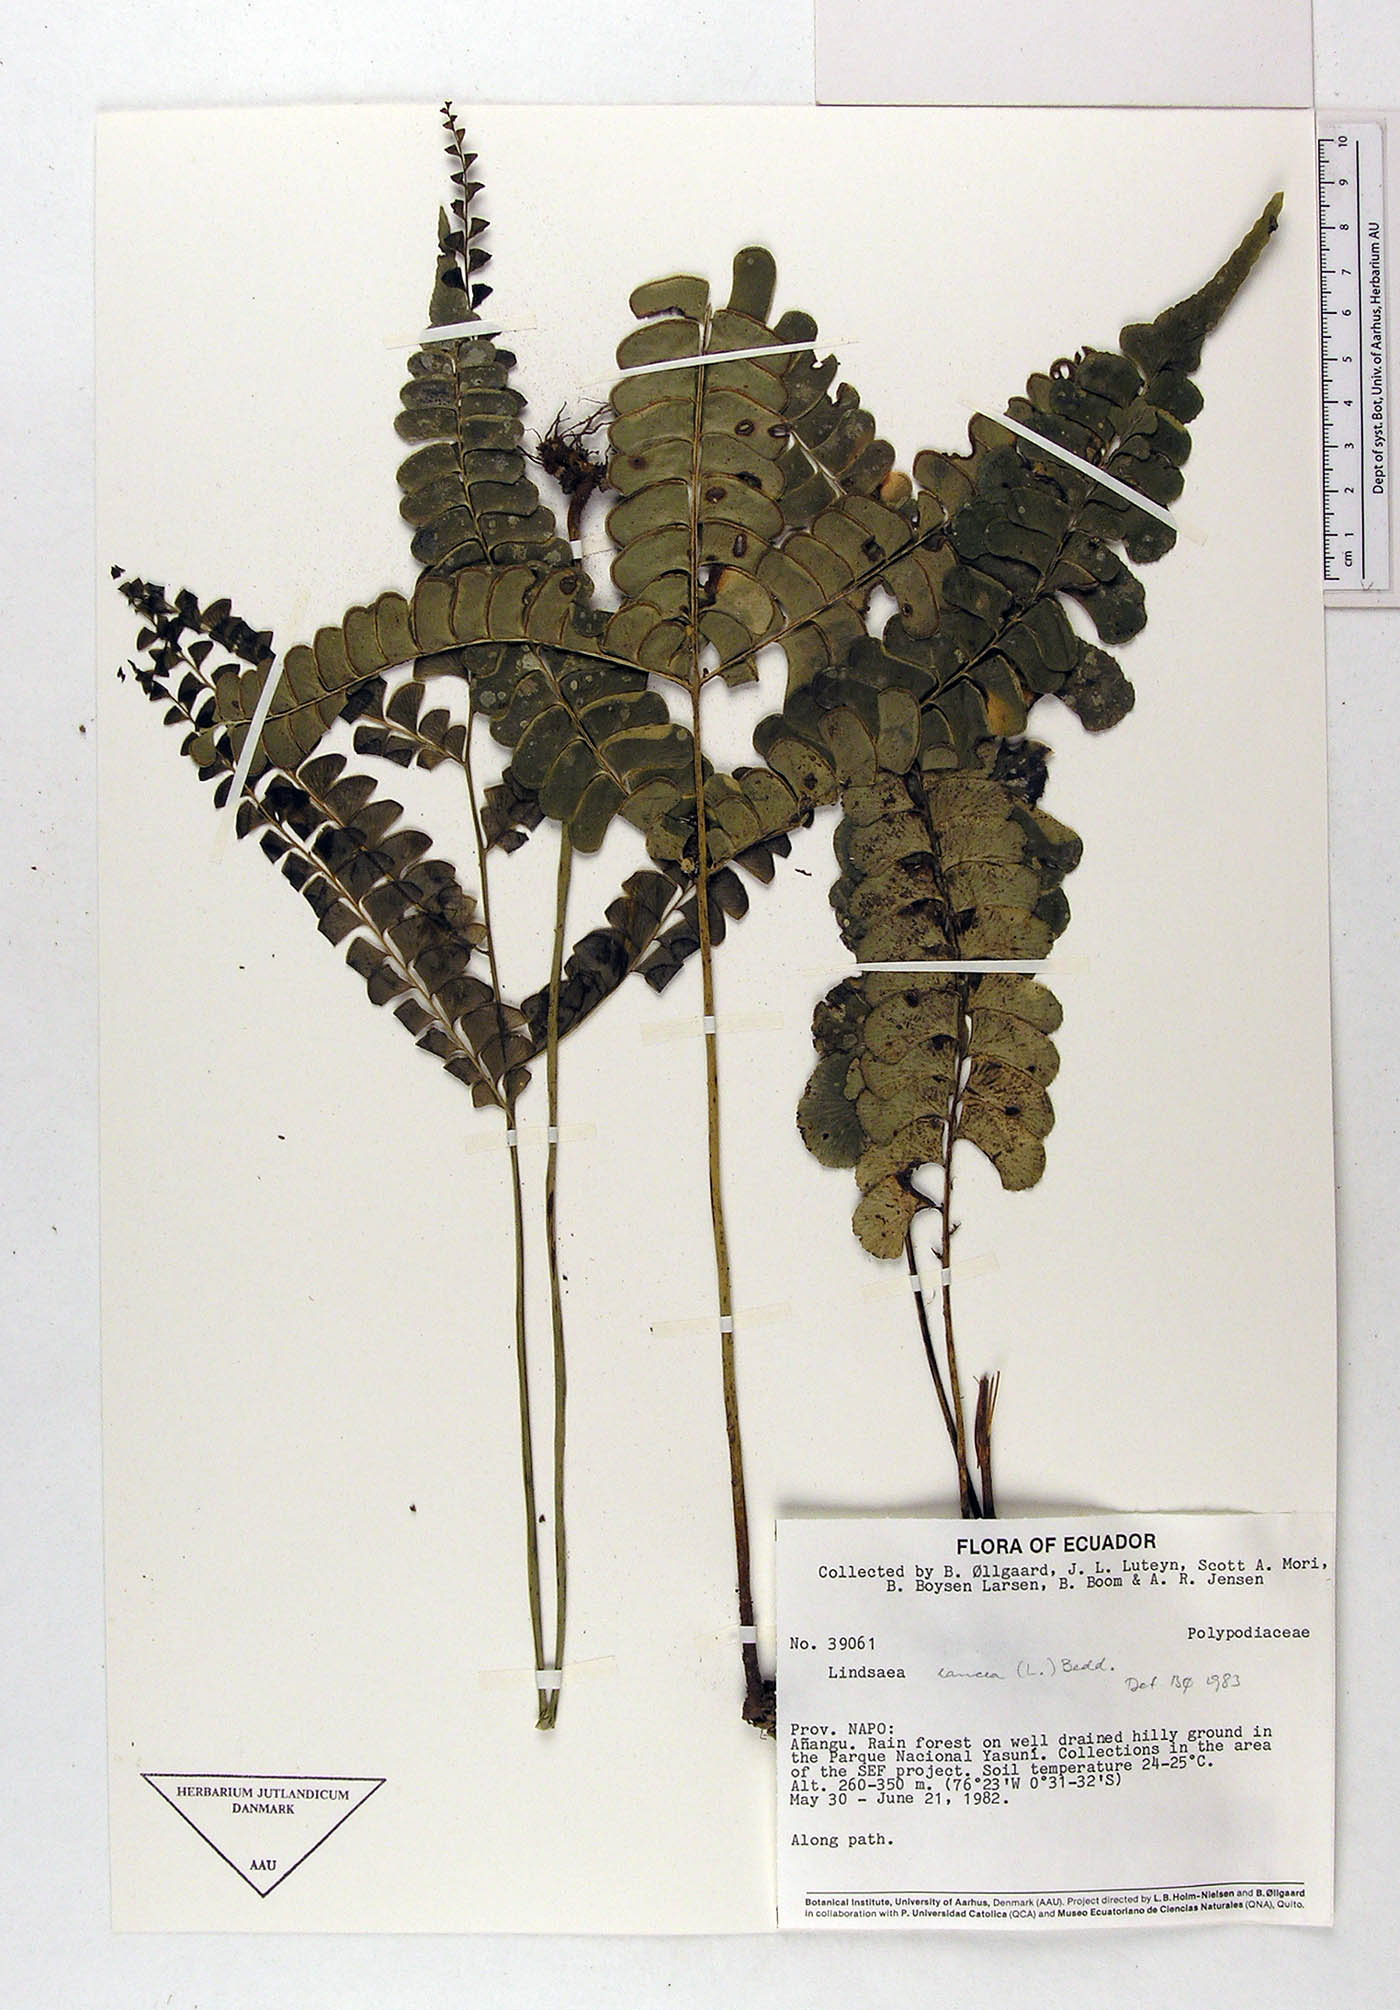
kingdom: Plantae
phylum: Tracheophyta
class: Polypodiopsida
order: Polypodiales
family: Dennstaedtiaceae
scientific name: Dennstaedtiaceae
